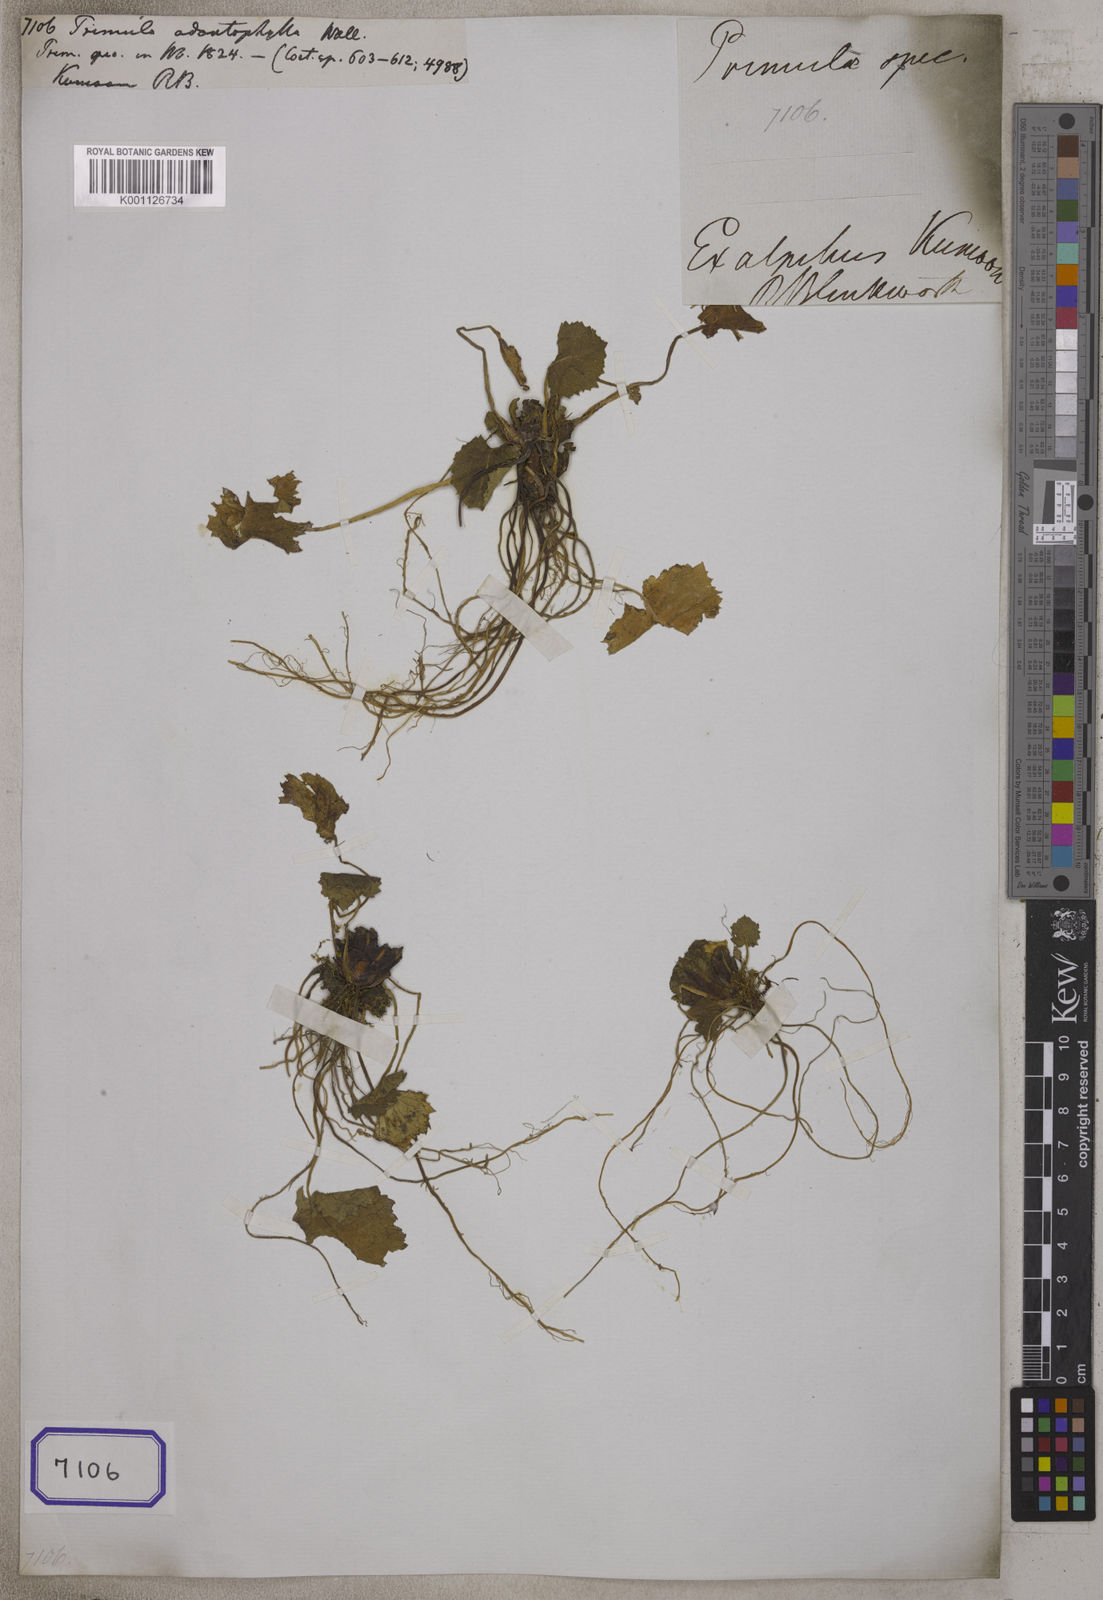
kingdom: Plantae
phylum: Tracheophyta
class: Magnoliopsida
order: Ericales
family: Primulaceae
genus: Primula
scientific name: Primula rotundifolia
